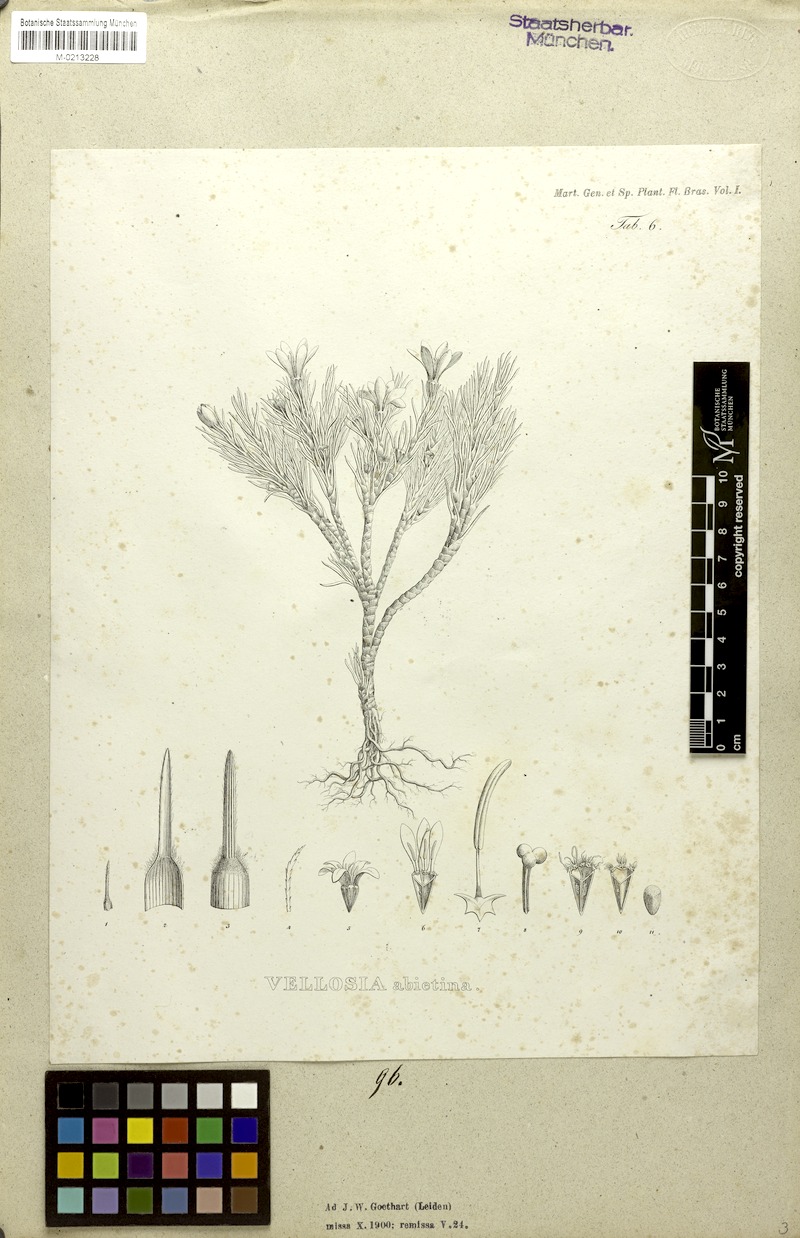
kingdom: Plantae
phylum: Tracheophyta
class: Liliopsida
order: Pandanales
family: Velloziaceae
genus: Vellozia
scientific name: Vellozia abietina
